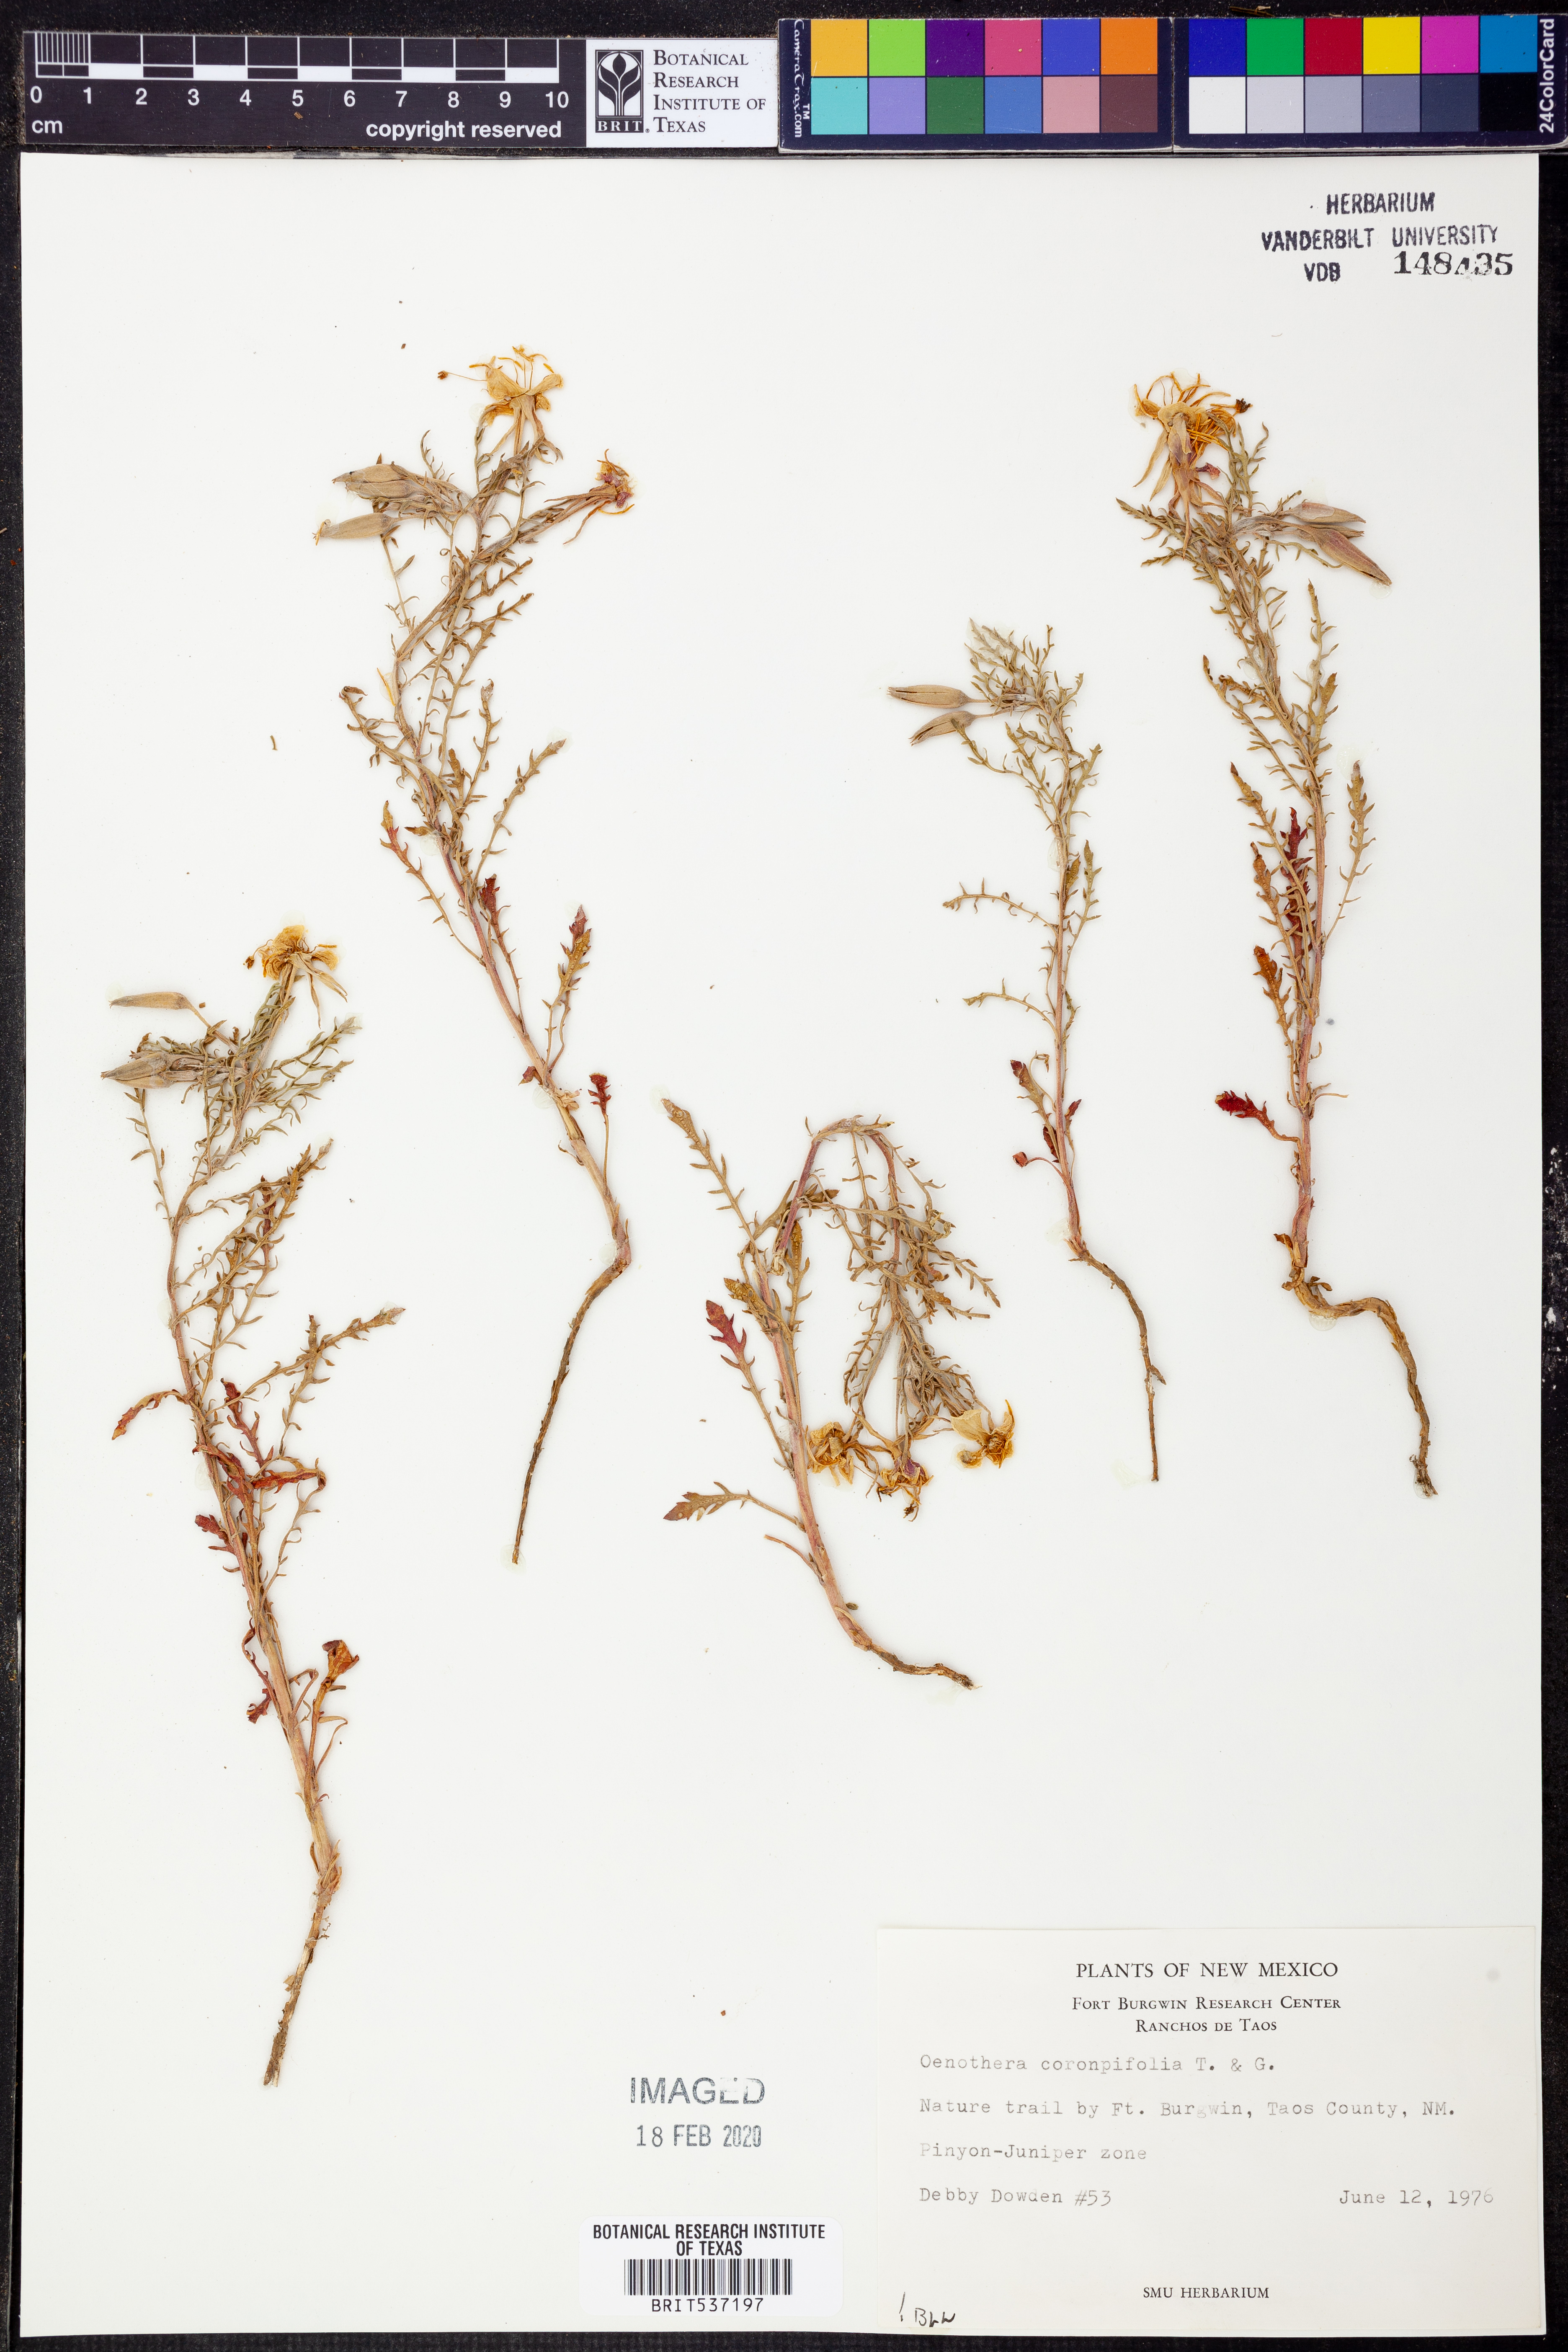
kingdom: Plantae
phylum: Tracheophyta
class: Magnoliopsida
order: Myrtales
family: Onagraceae
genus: Oenothera
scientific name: Oenothera coronopifolia
